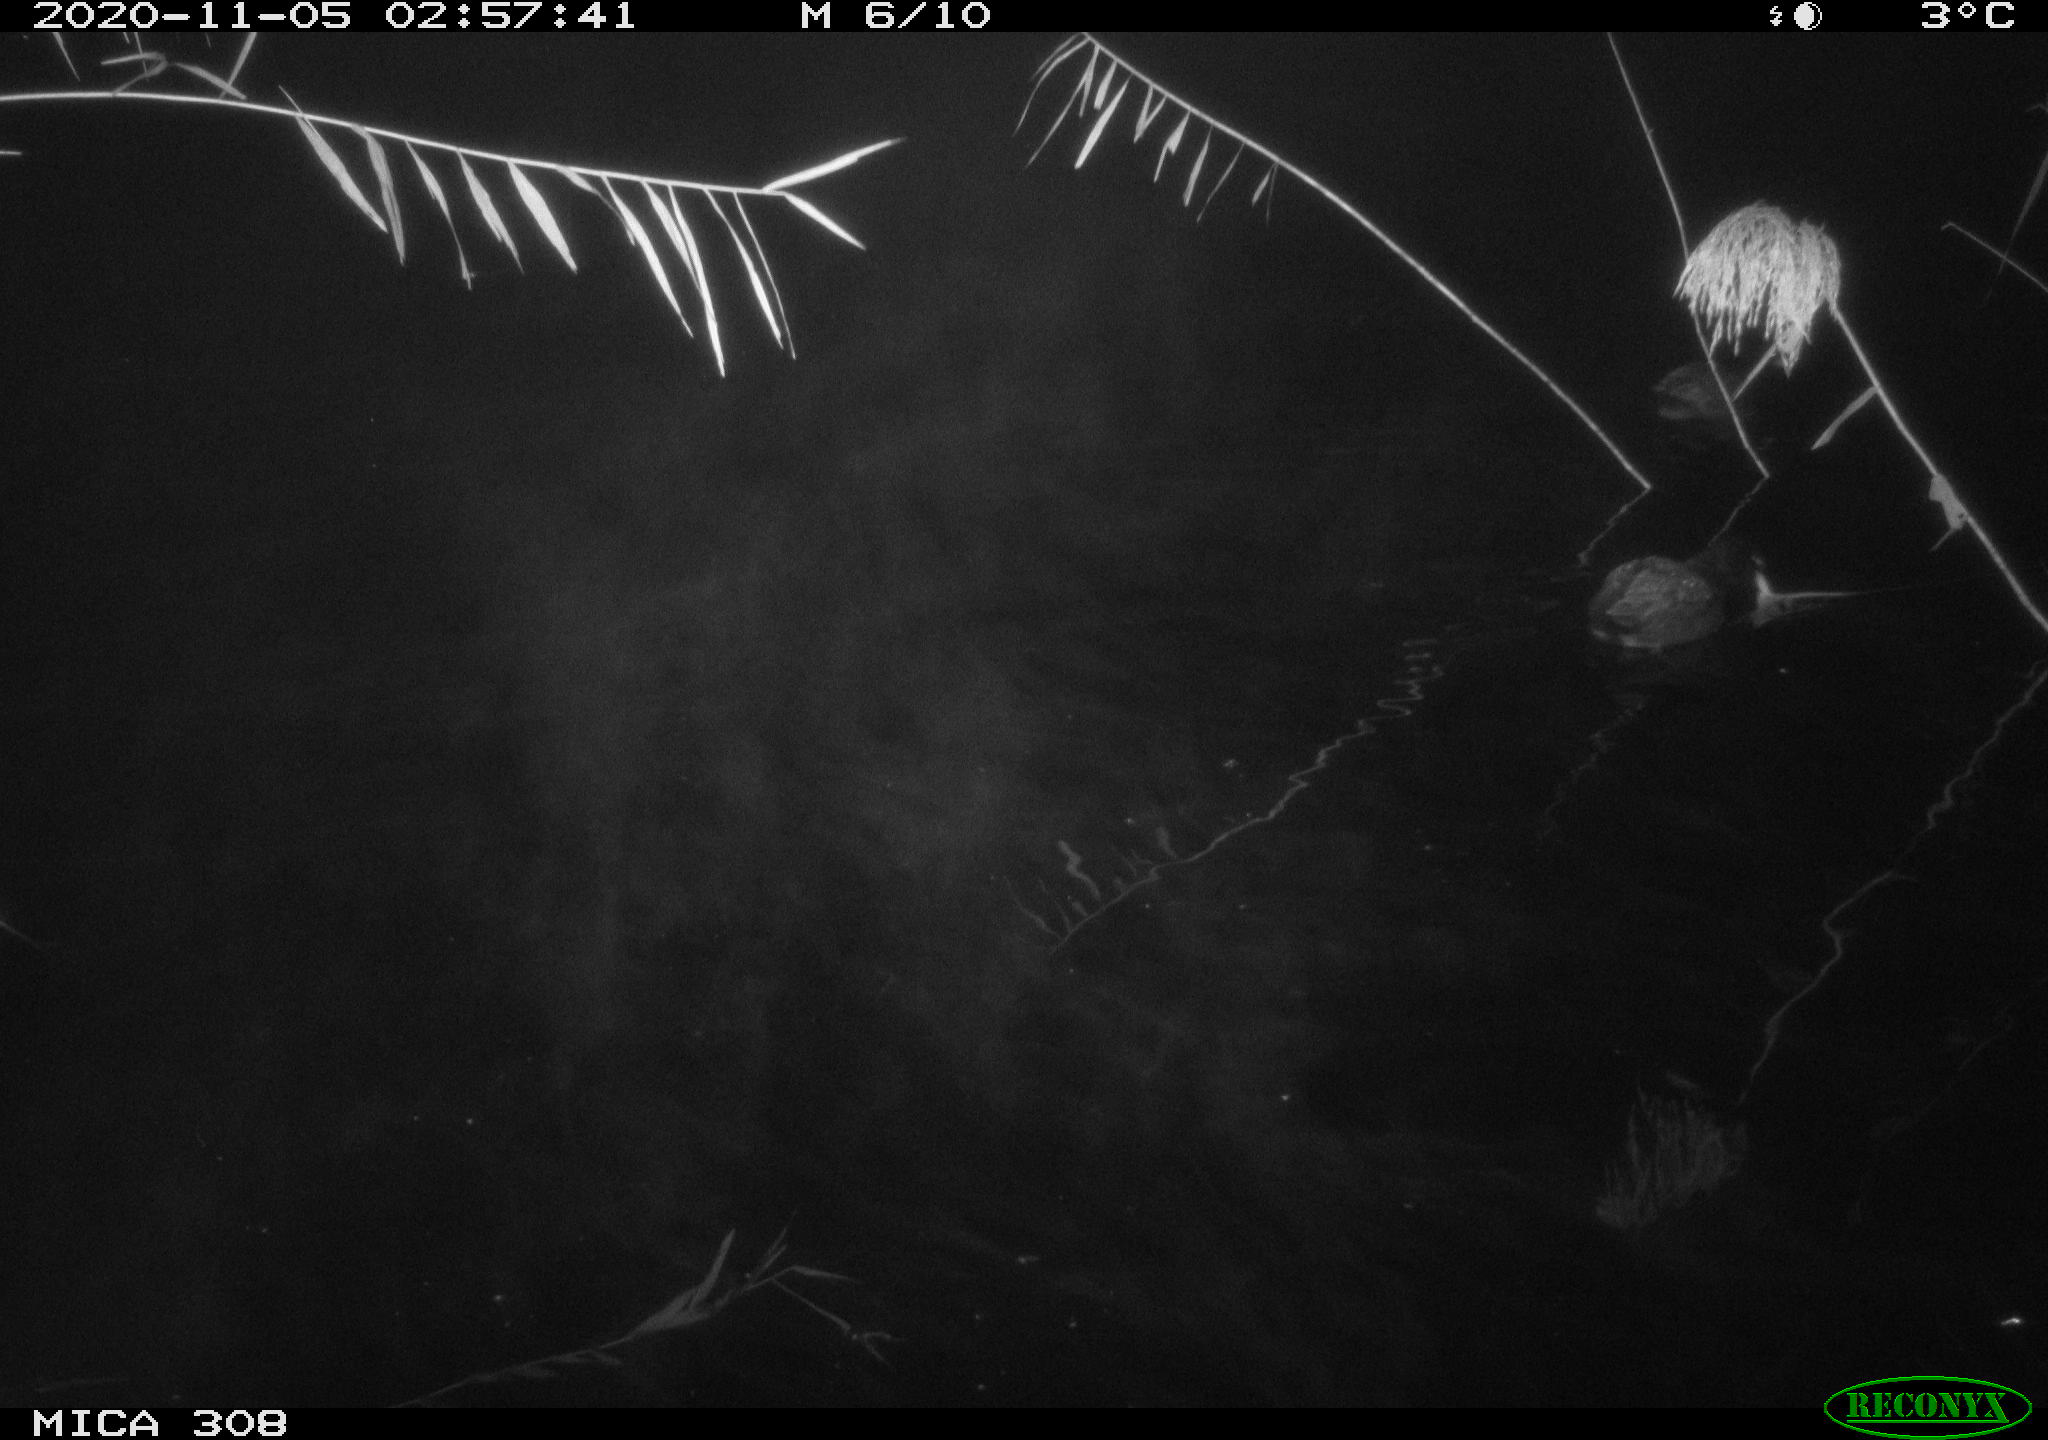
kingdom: Animalia
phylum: Chordata
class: Aves
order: Gruiformes
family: Rallidae
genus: Fulica
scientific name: Fulica atra
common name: Eurasian coot
